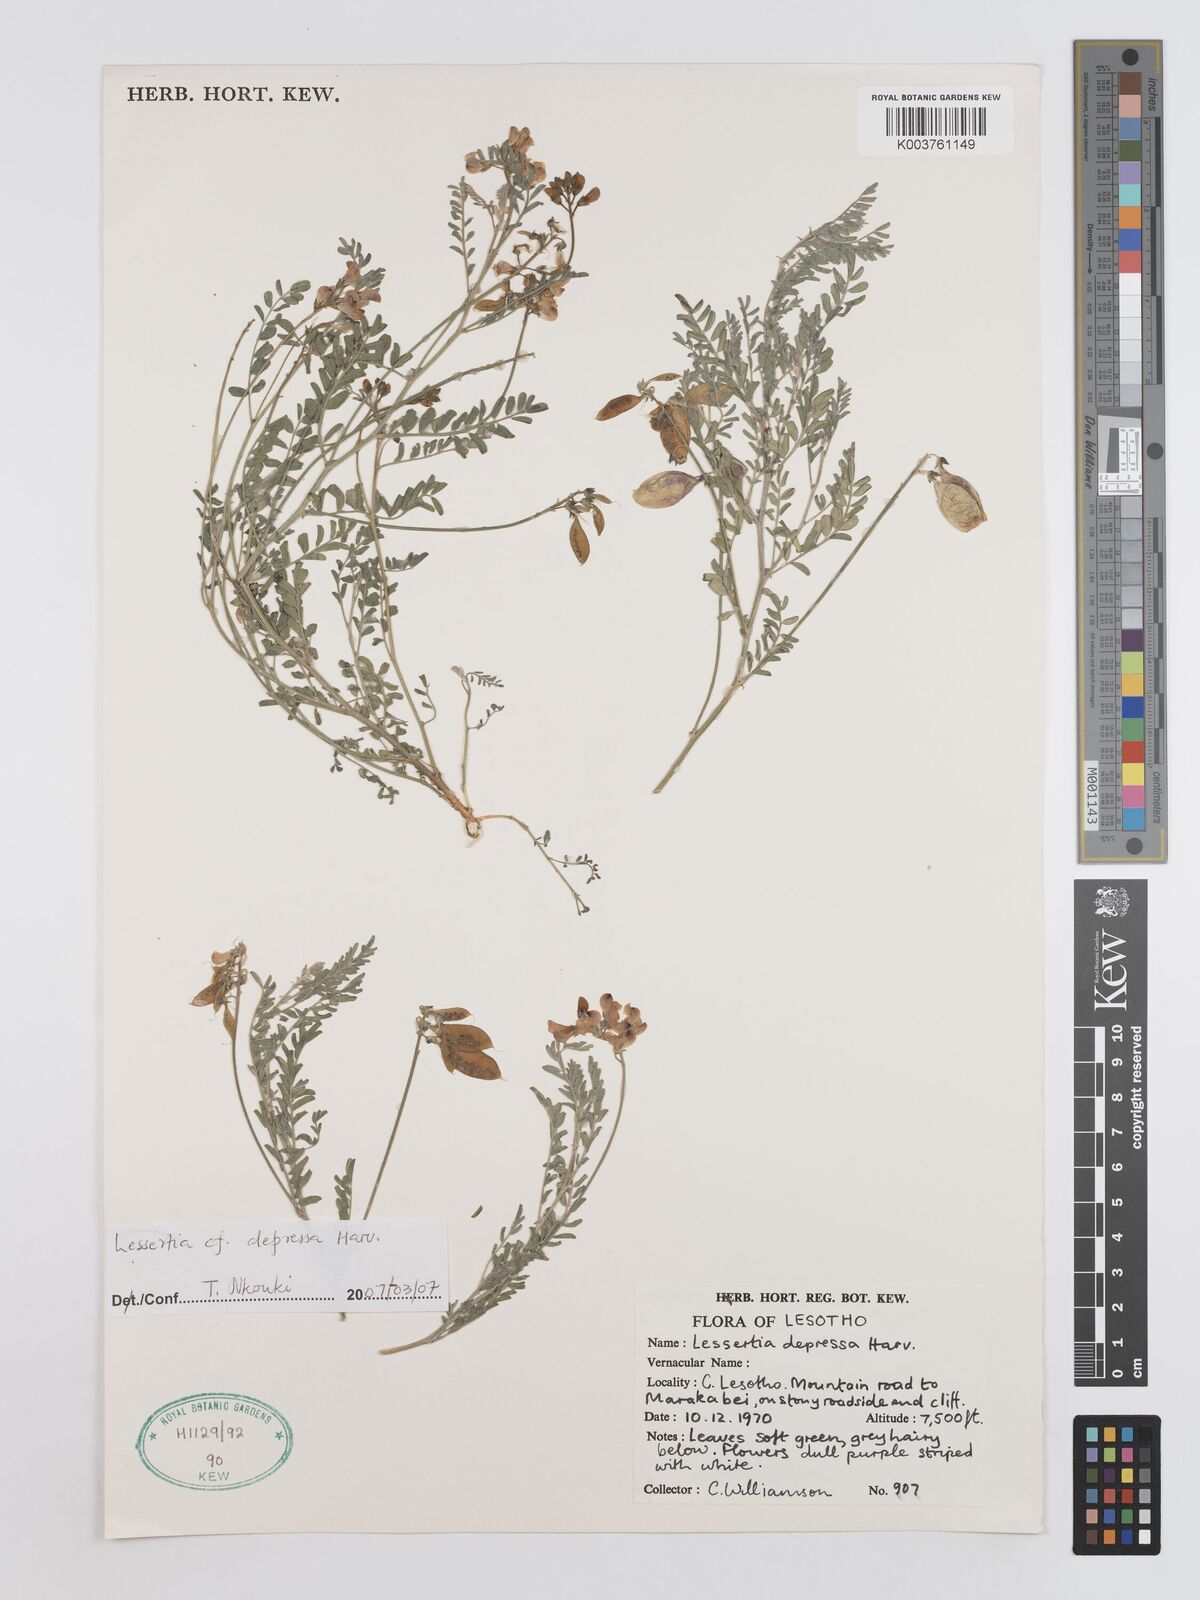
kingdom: Plantae
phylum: Tracheophyta
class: Magnoliopsida
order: Fabales
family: Fabaceae
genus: Lessertia
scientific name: Lessertia depressa
